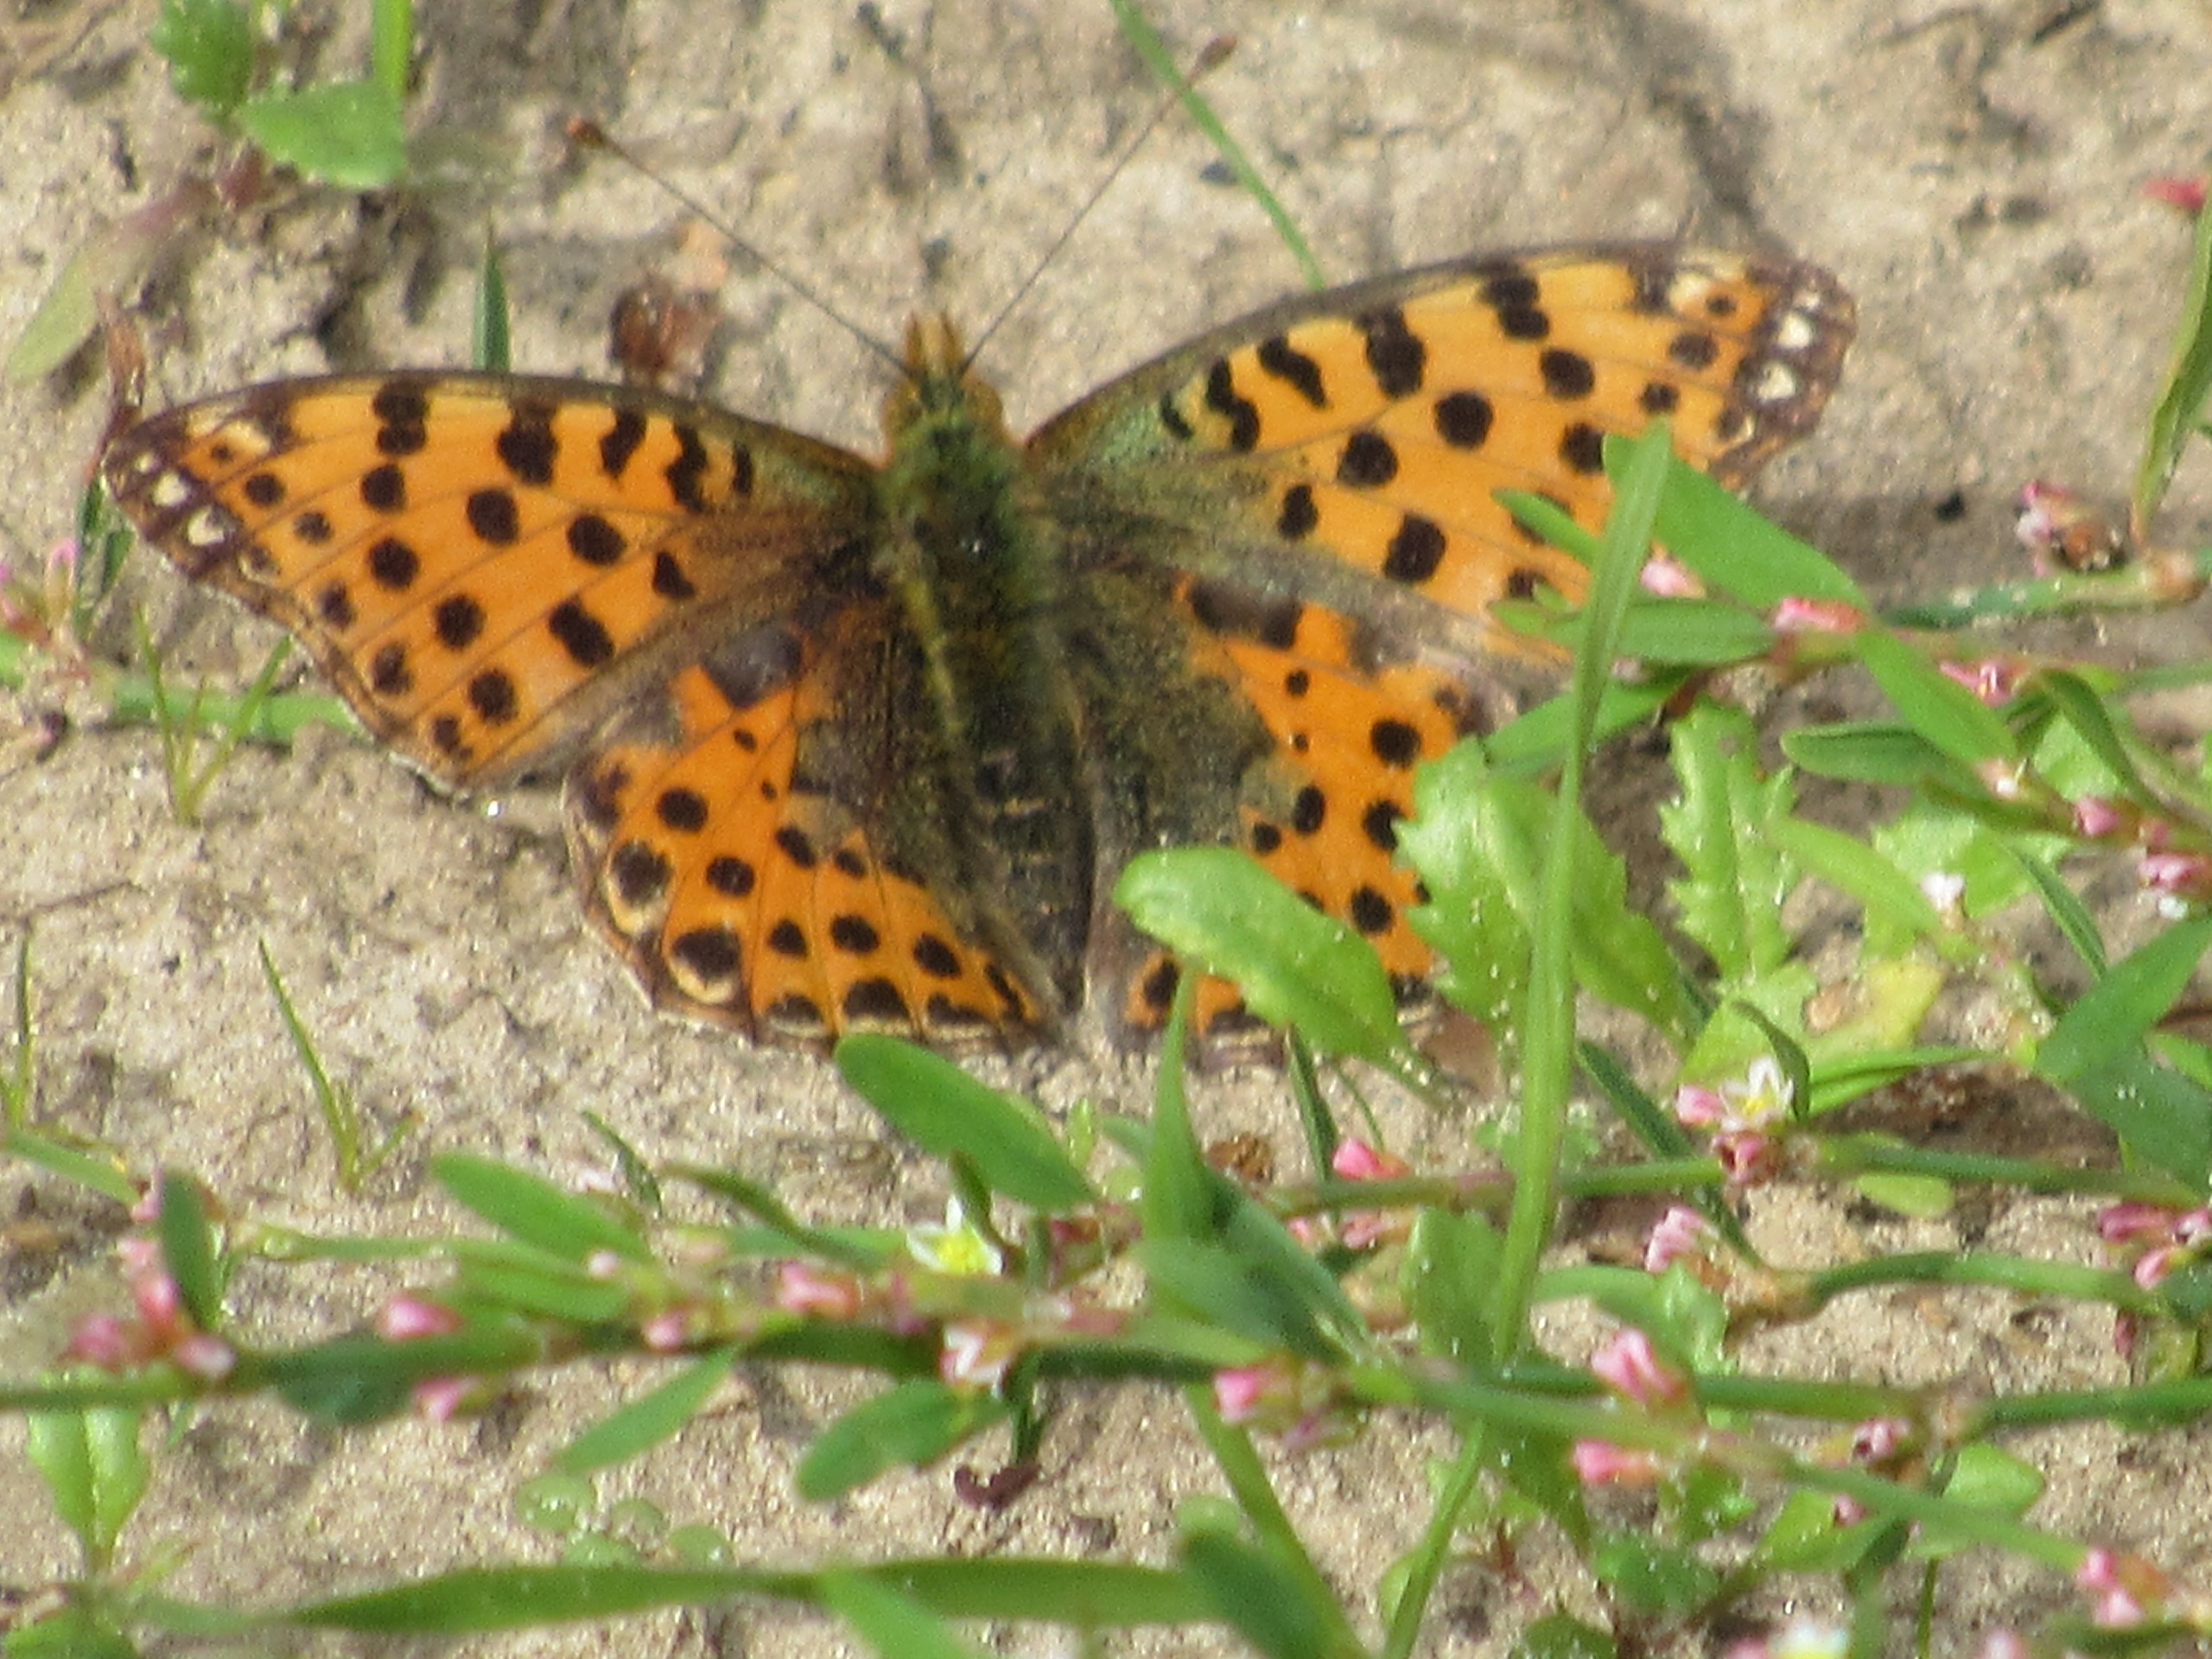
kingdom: Animalia
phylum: Arthropoda
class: Insecta
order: Lepidoptera
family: Nymphalidae
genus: Issoria
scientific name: Issoria lathonia
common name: Storplettet perlemorsommerfugl
